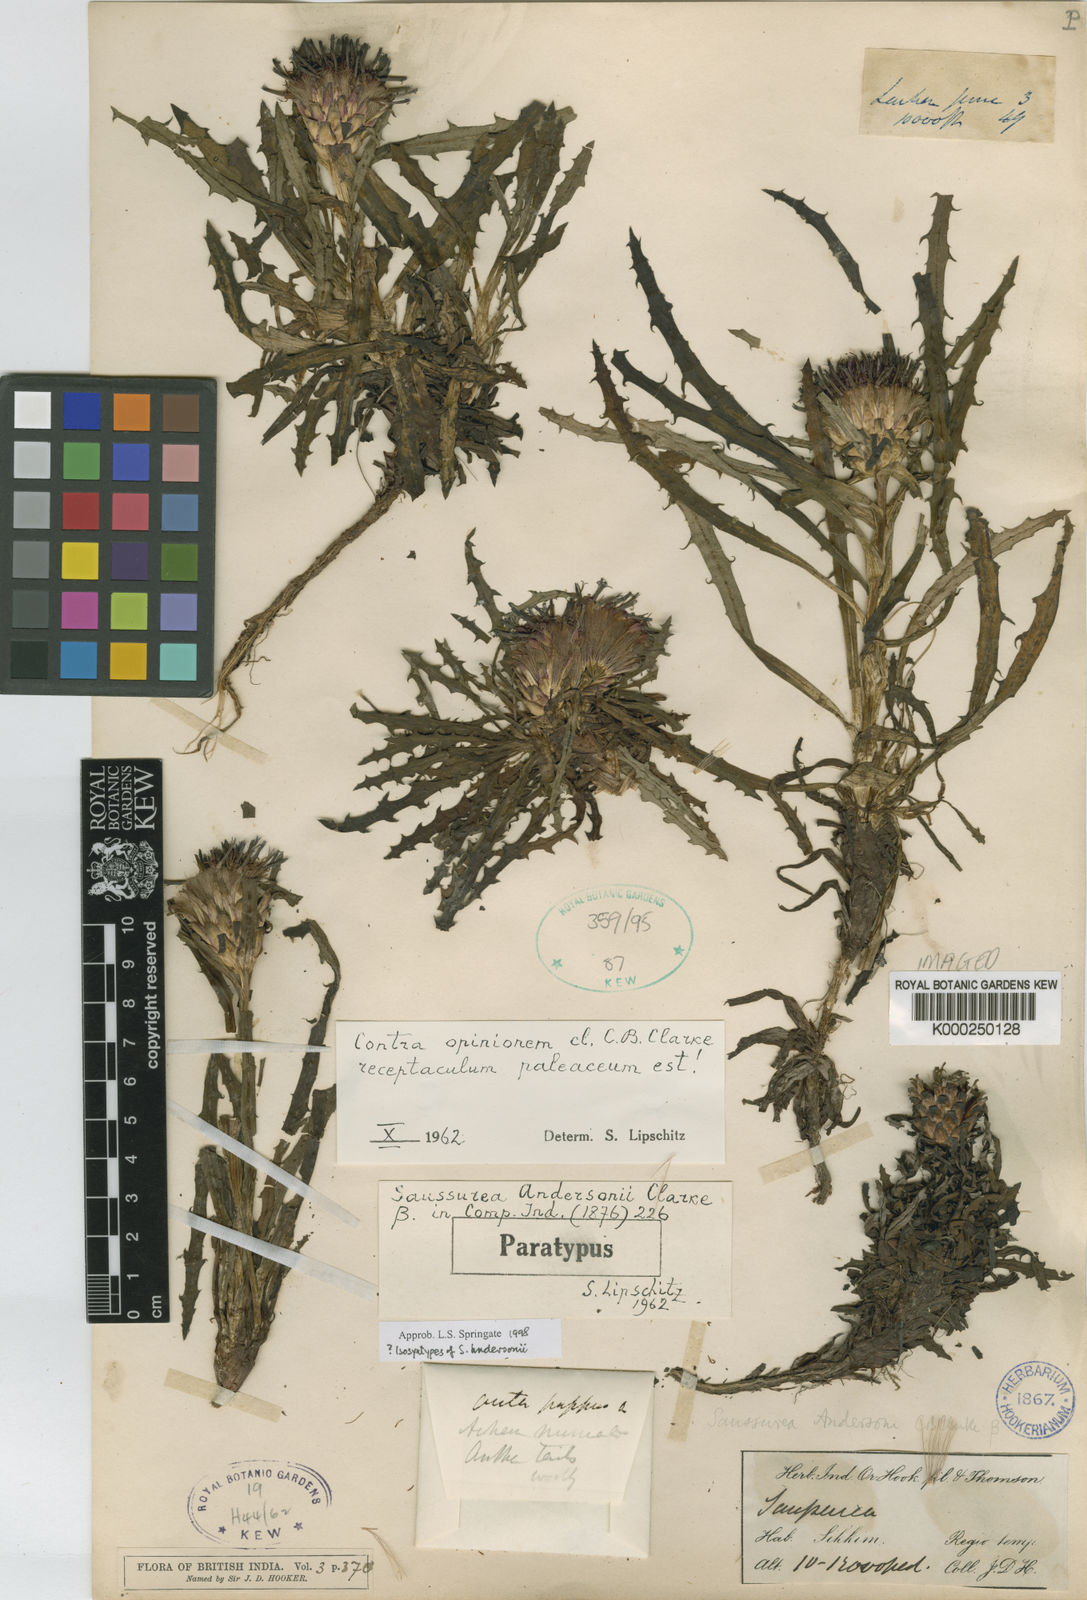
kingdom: Plantae
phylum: Tracheophyta
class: Magnoliopsida
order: Asterales
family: Asteraceae
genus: Saussurea
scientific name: Saussurea andersonii
